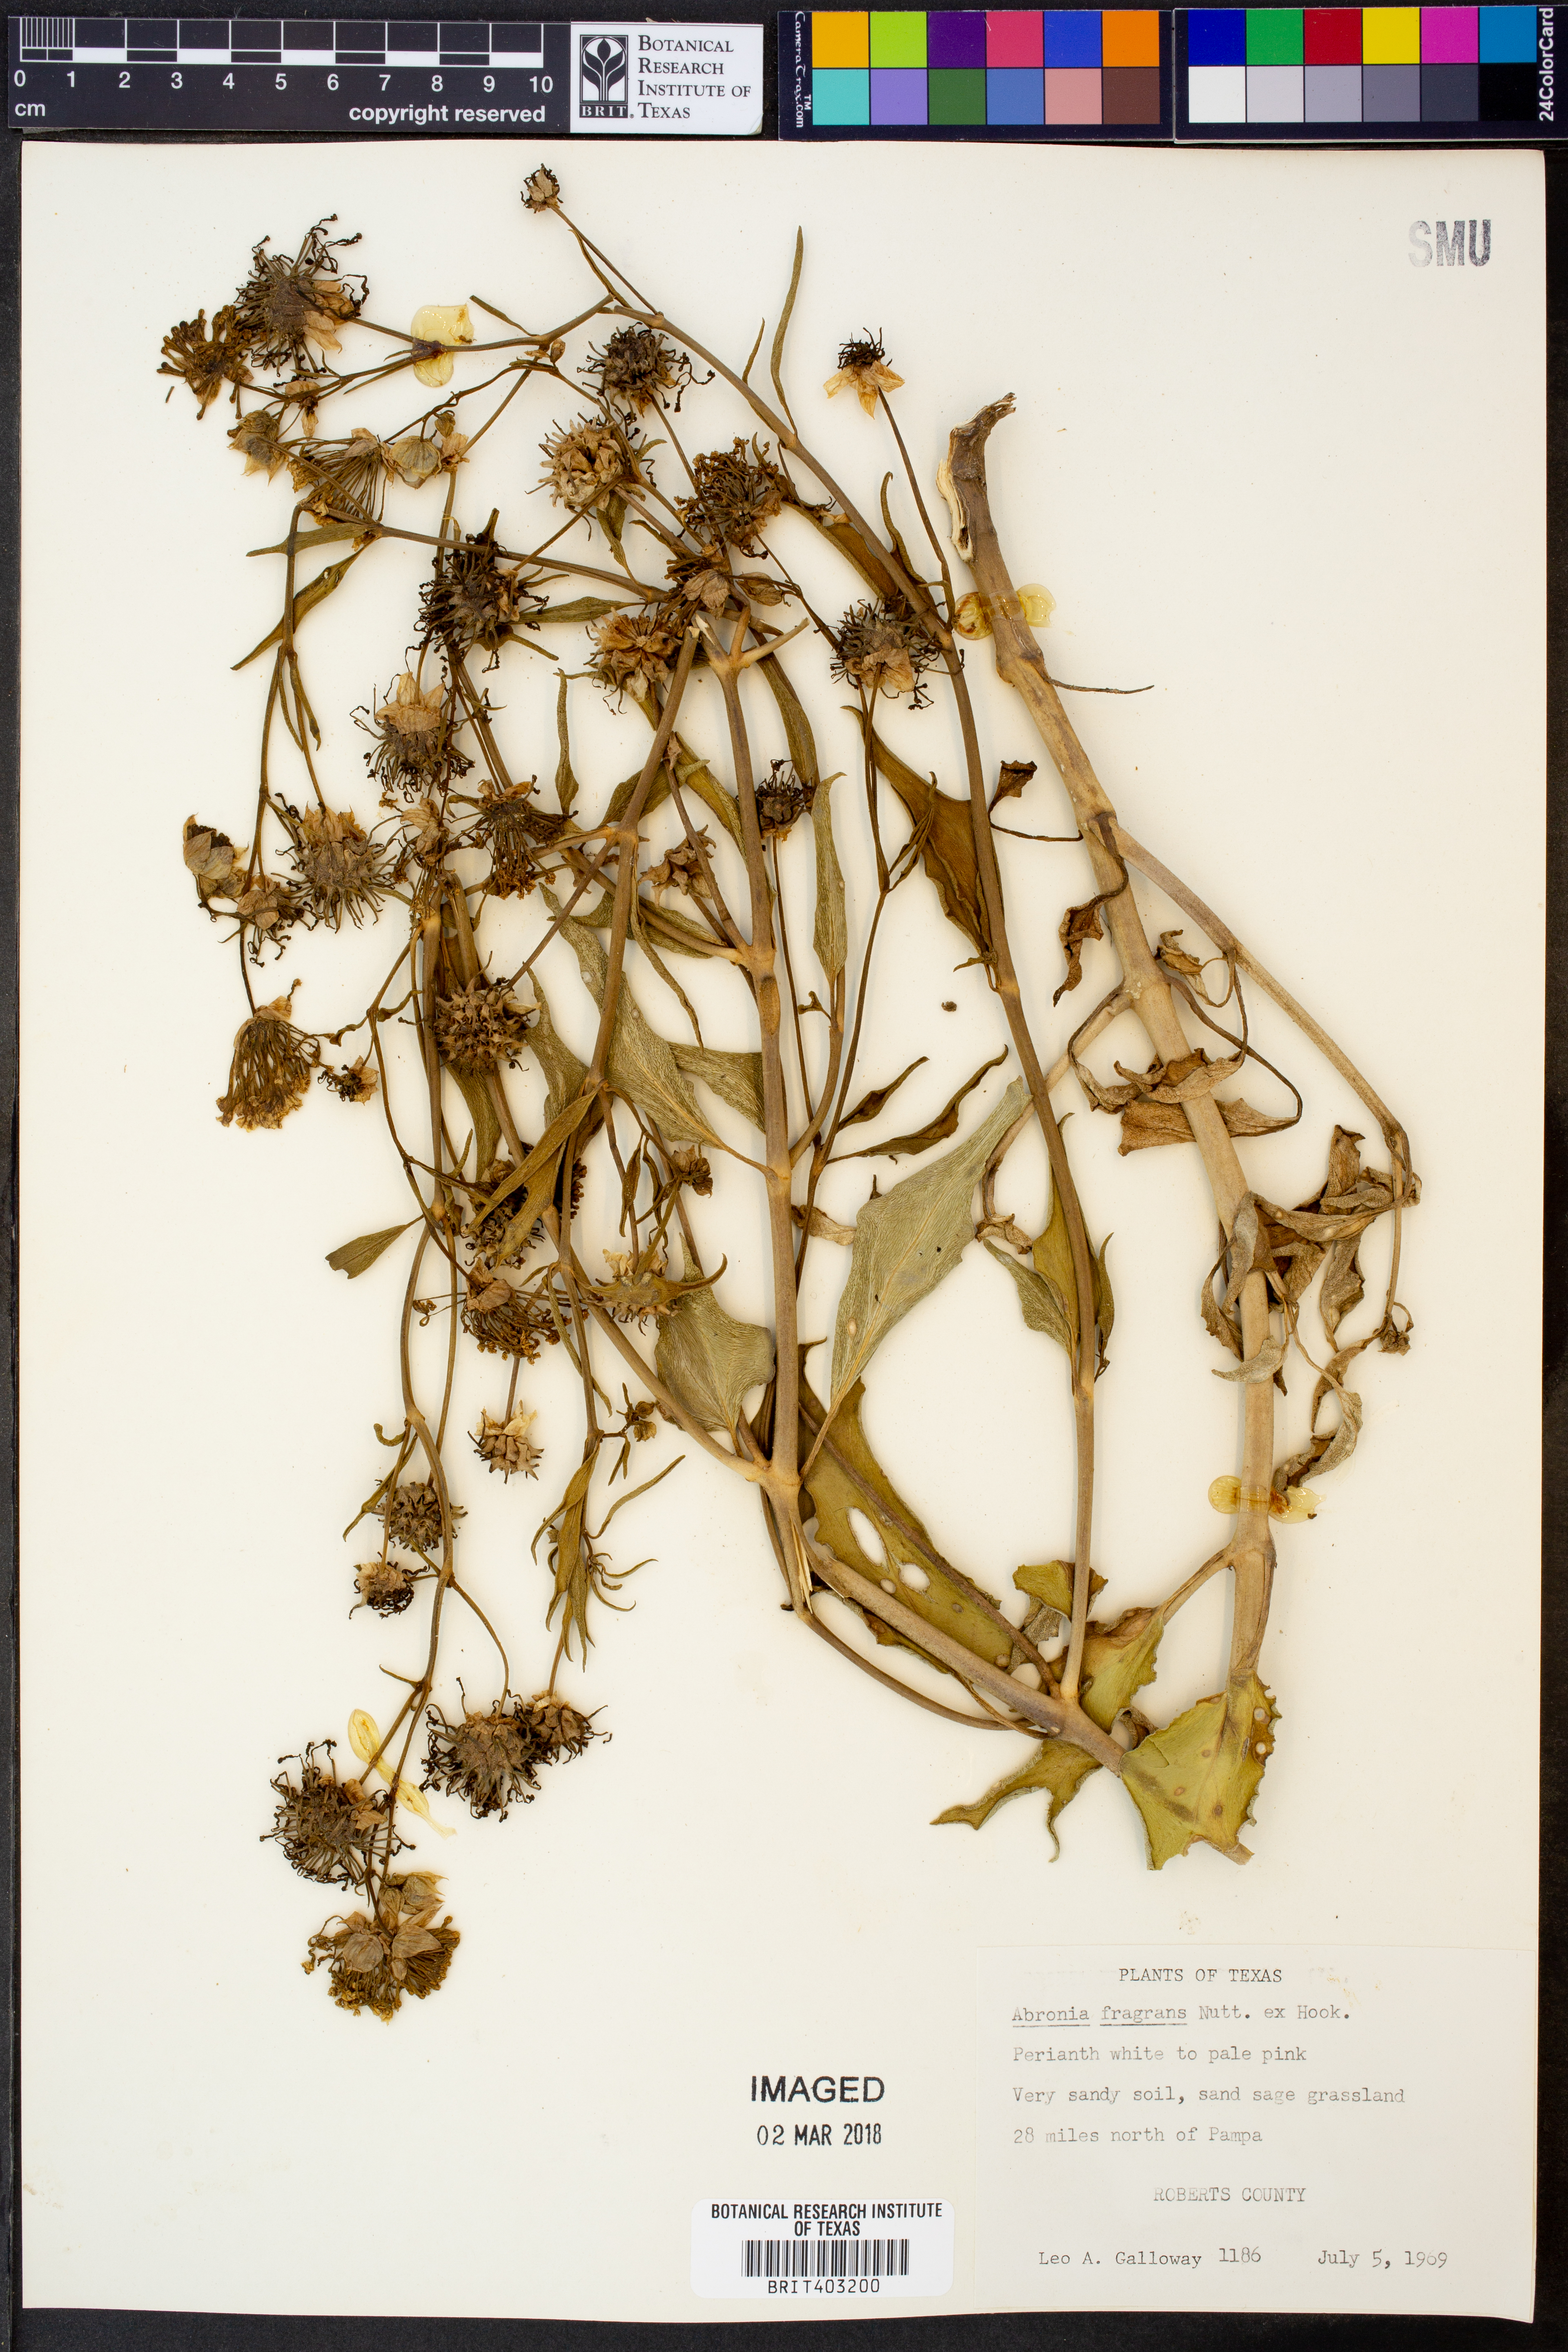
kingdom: Plantae
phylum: Tracheophyta
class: Magnoliopsida
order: Caryophyllales
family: Nyctaginaceae
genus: Abronia
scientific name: Abronia fragrans
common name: Fragrant sand-verbena
